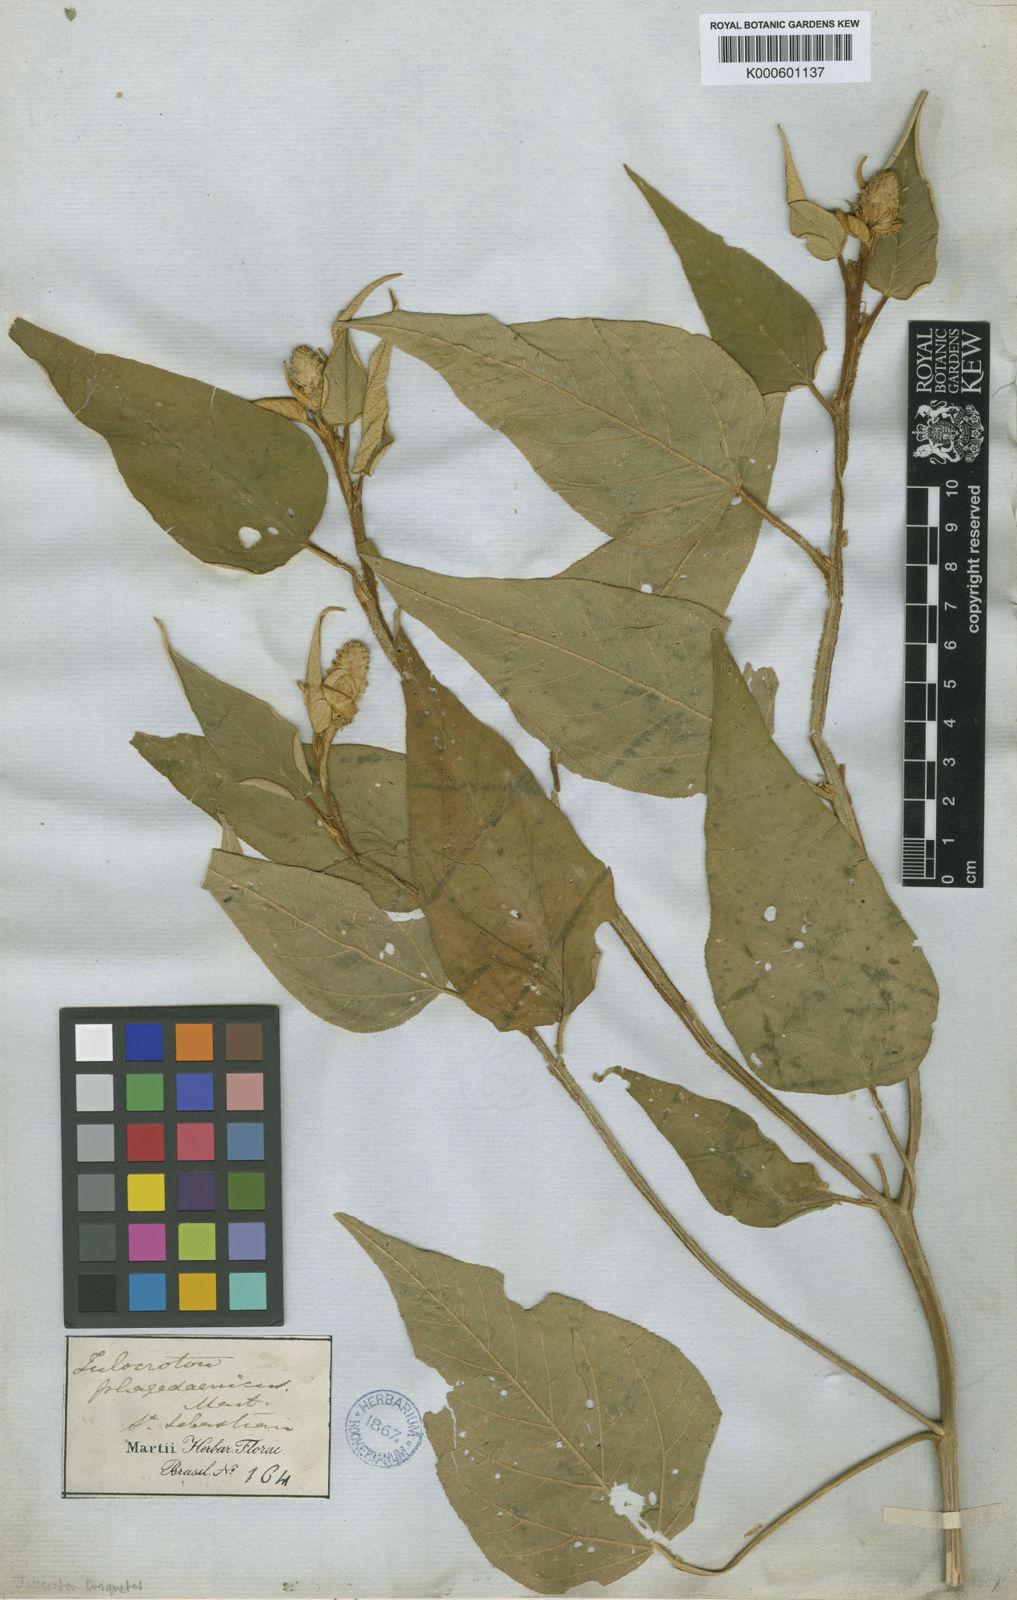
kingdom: Plantae
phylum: Tracheophyta
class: Magnoliopsida
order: Malpighiales
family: Euphorbiaceae
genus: Croton
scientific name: Croton triqueter
